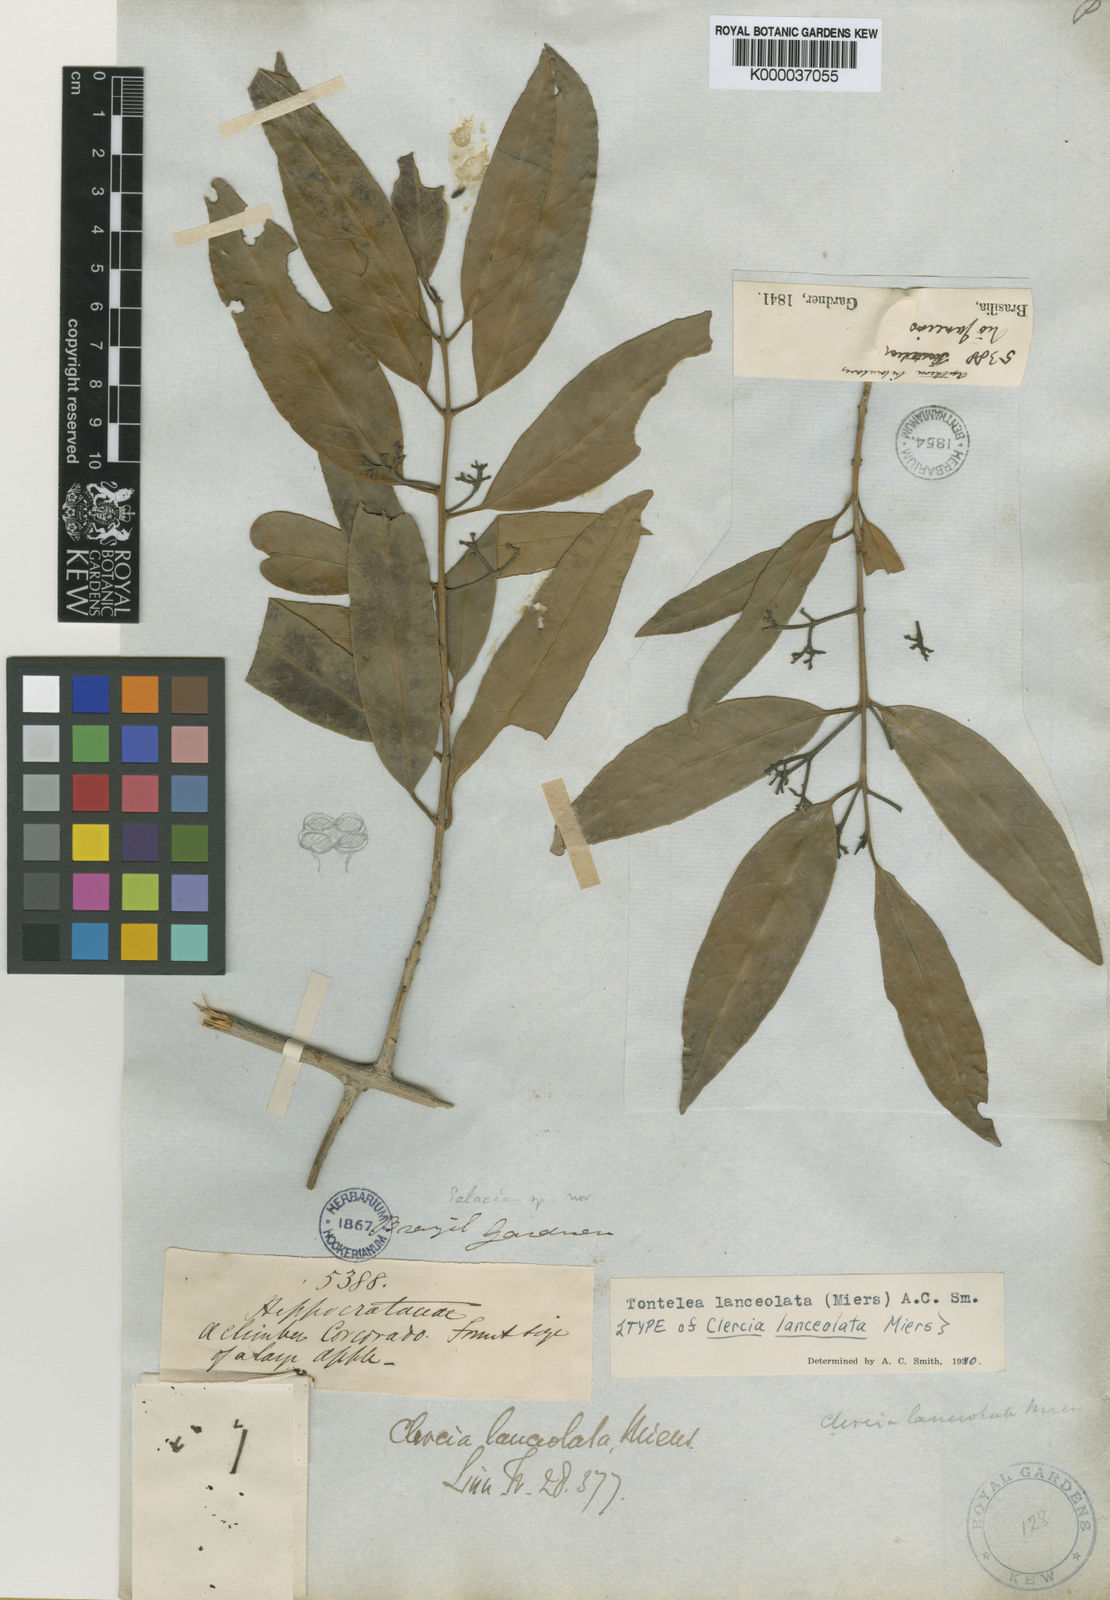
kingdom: Plantae
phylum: Tracheophyta
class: Magnoliopsida
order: Celastrales
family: Celastraceae
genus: Tontelea
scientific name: Tontelea lanceolata
